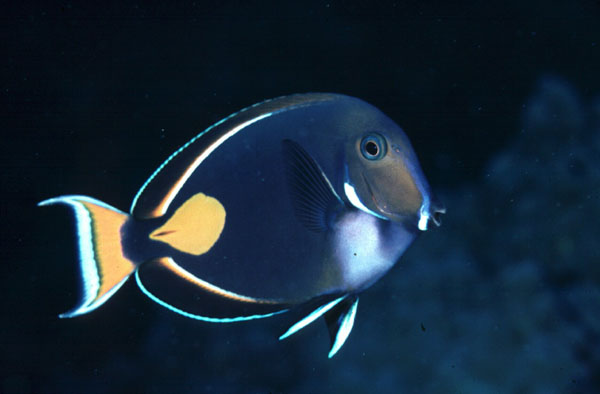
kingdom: Animalia
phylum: Chordata
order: Perciformes
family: Acanthuridae
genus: Acanthurus
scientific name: Acanthurus achilles
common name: Achilles tang
